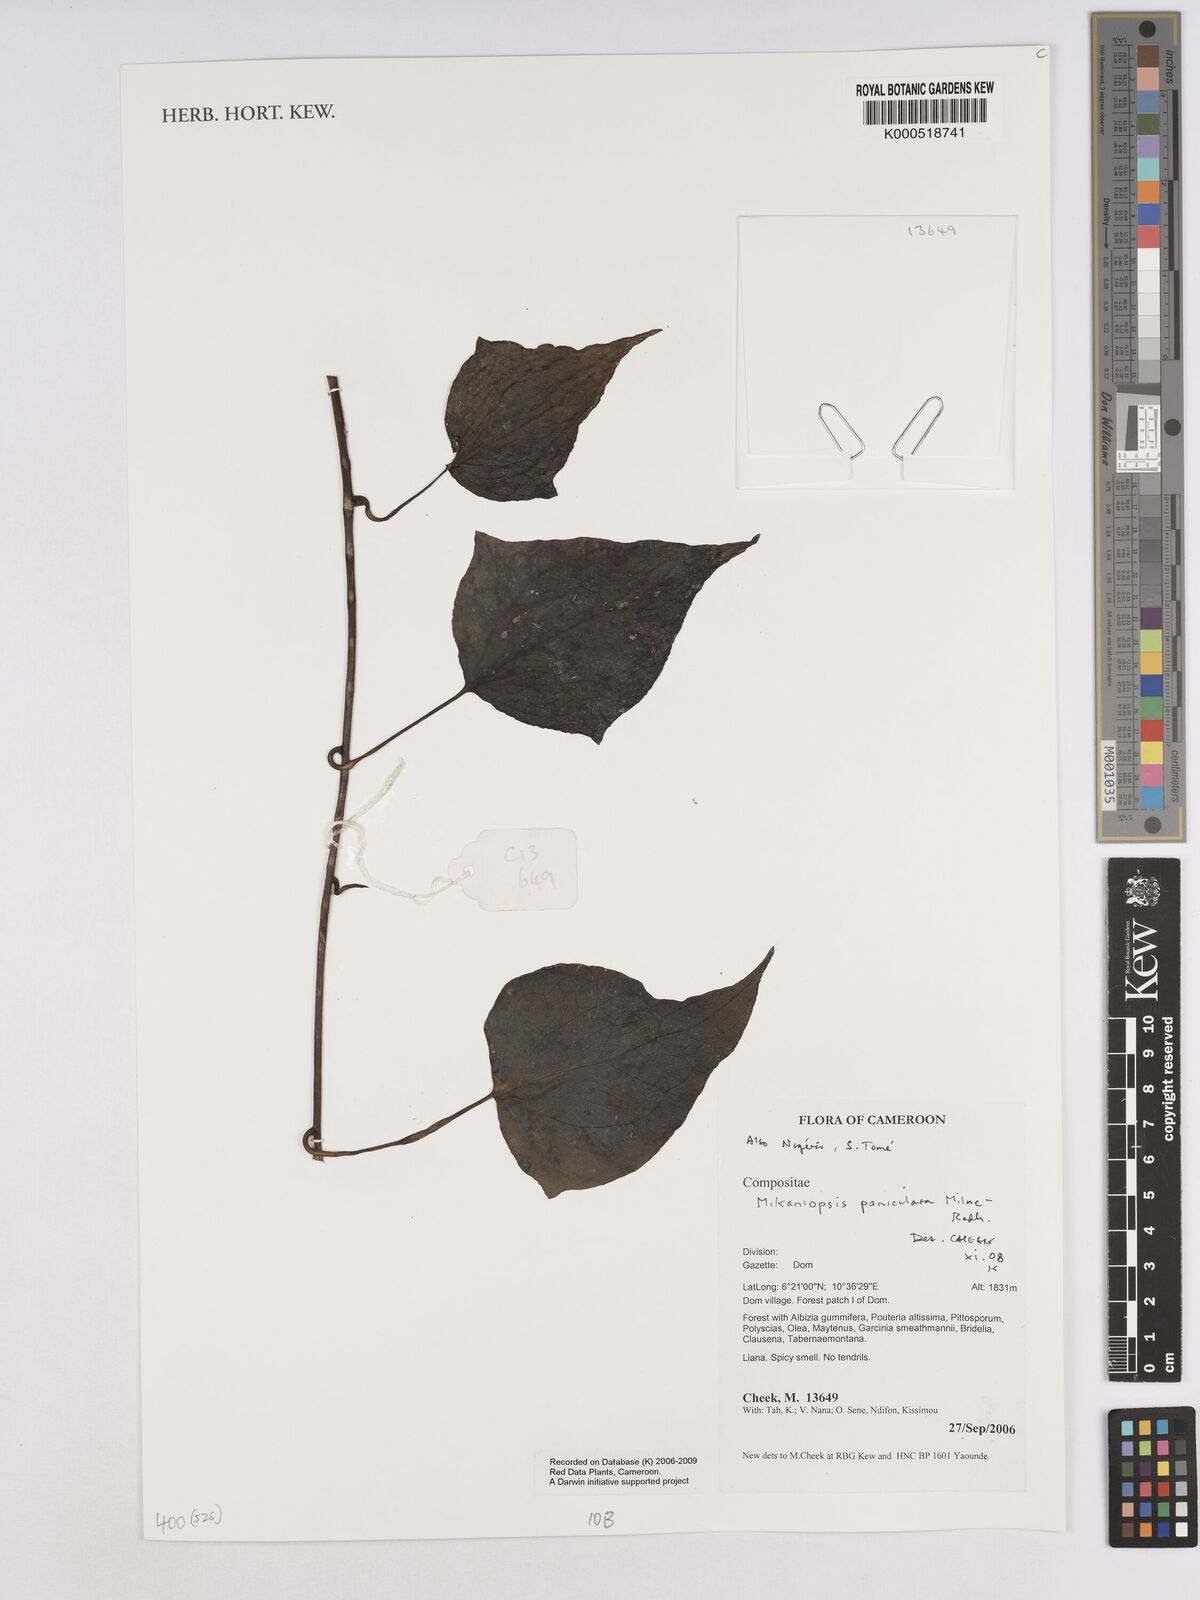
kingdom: Plantae
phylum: Tracheophyta
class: Magnoliopsida
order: Asterales
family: Asteraceae
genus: Mikaniopsis
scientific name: Mikaniopsis paniculata
